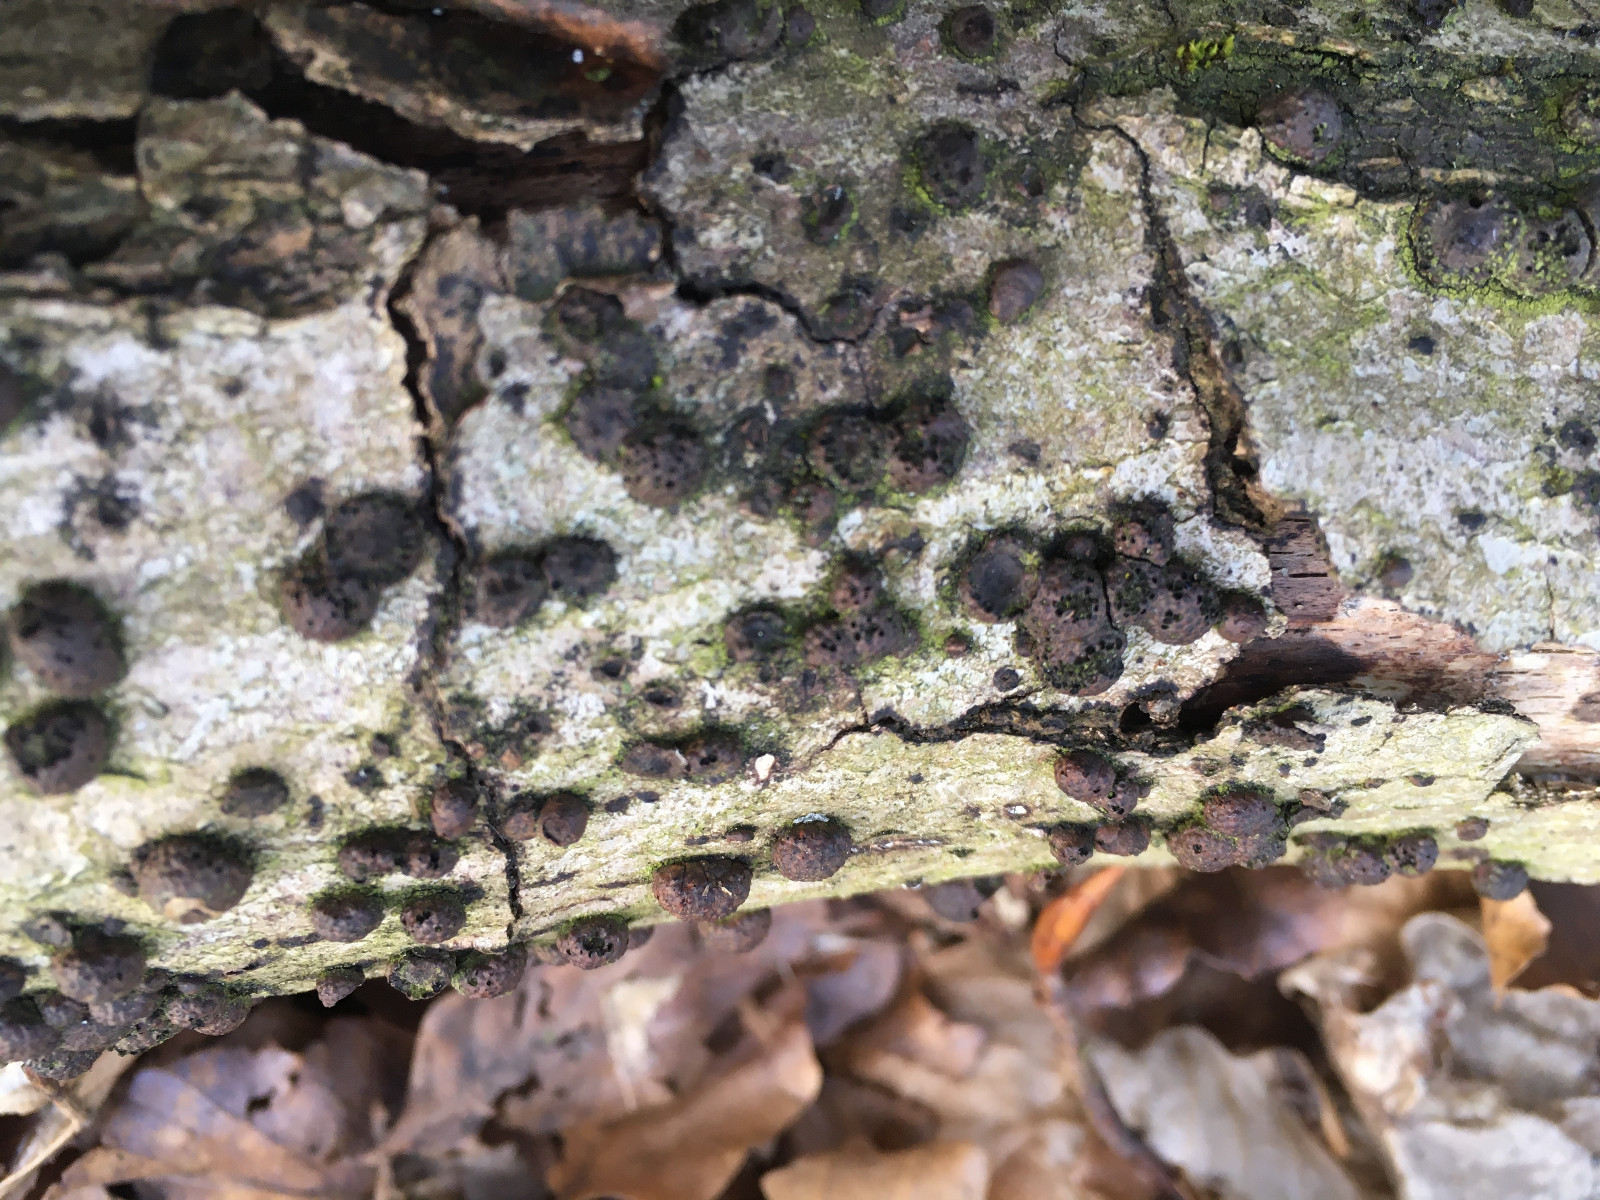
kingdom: Fungi
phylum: Ascomycota
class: Sordariomycetes
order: Xylariales
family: Hypoxylaceae
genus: Hypoxylon
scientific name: Hypoxylon fragiforme
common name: kuljordbær
